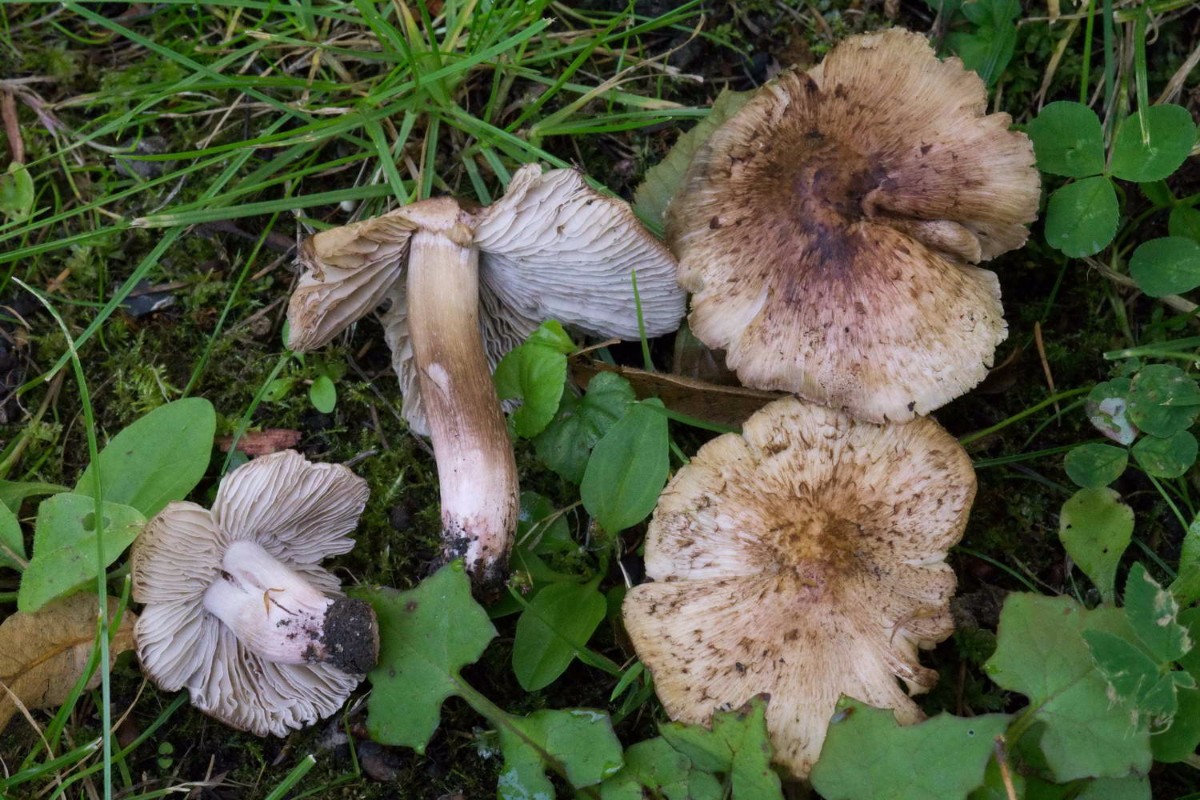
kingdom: Fungi
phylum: Basidiomycota
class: Agaricomycetes
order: Agaricales
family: Inocybaceae
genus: Inosperma
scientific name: Inosperma adaequatum
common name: vinrød trævlhat
